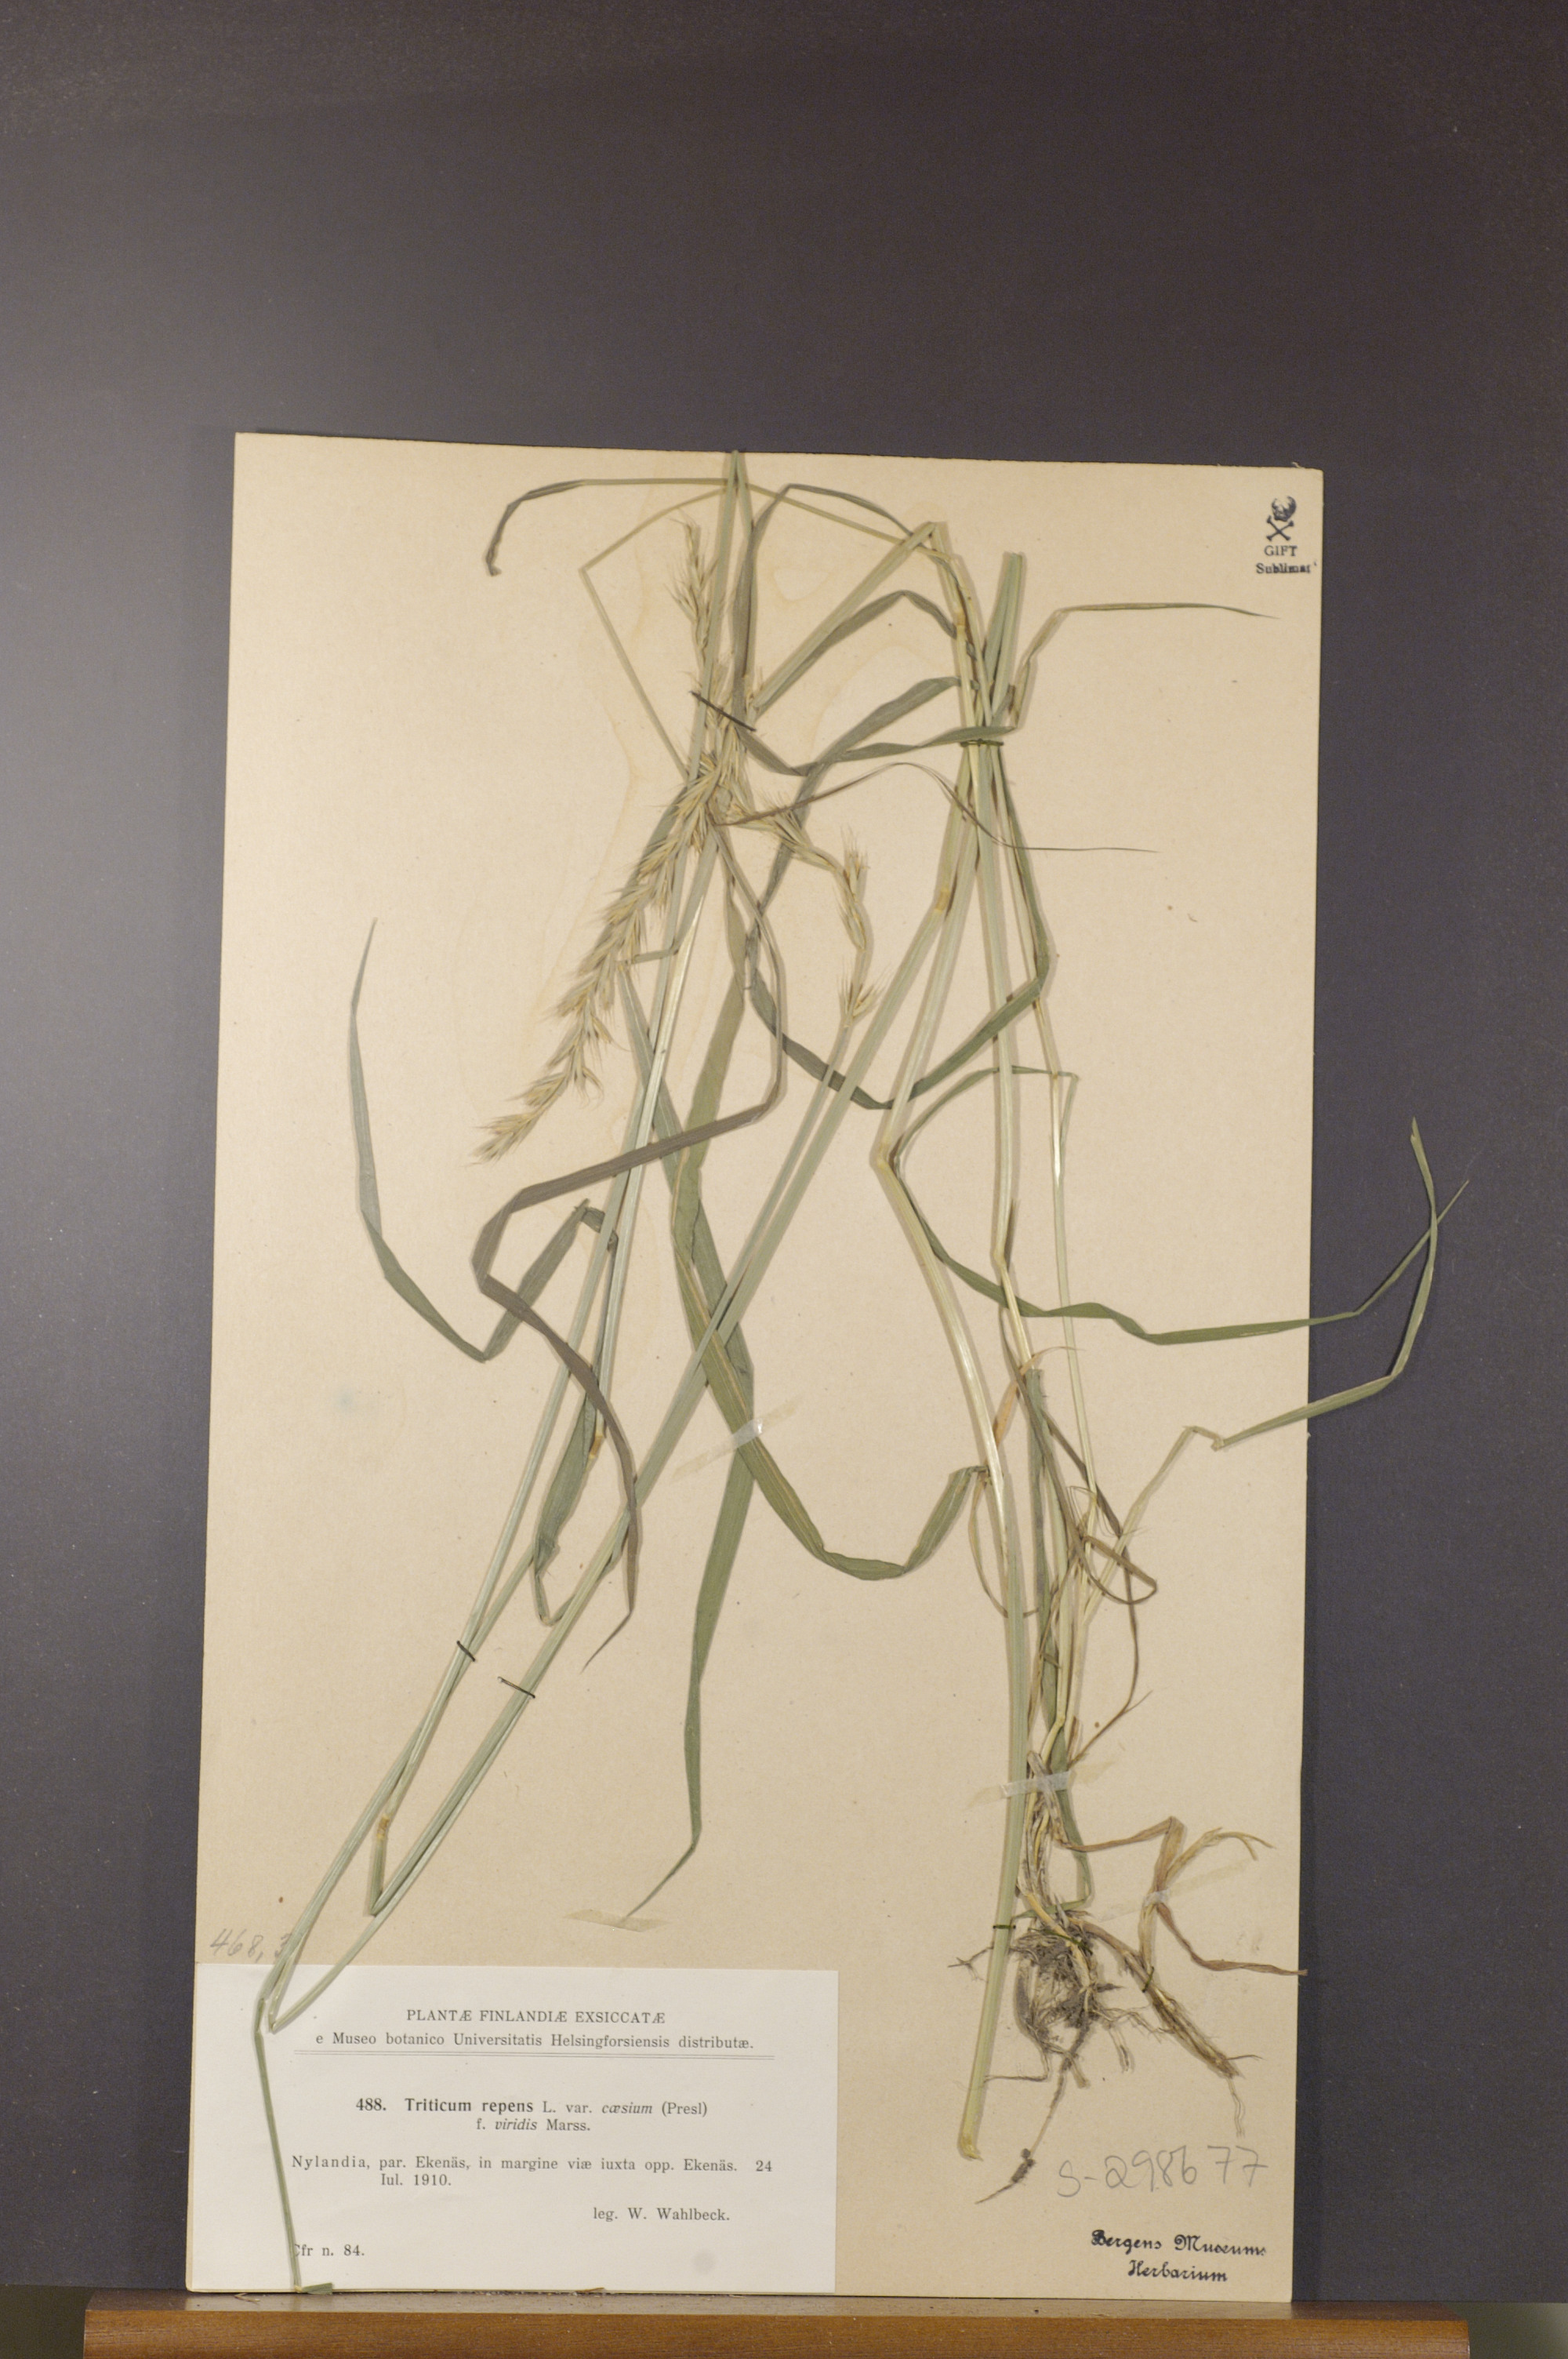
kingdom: Plantae
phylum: Tracheophyta
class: Liliopsida
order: Poales
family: Poaceae
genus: Elymus
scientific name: Elymus repens
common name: Quackgrass
